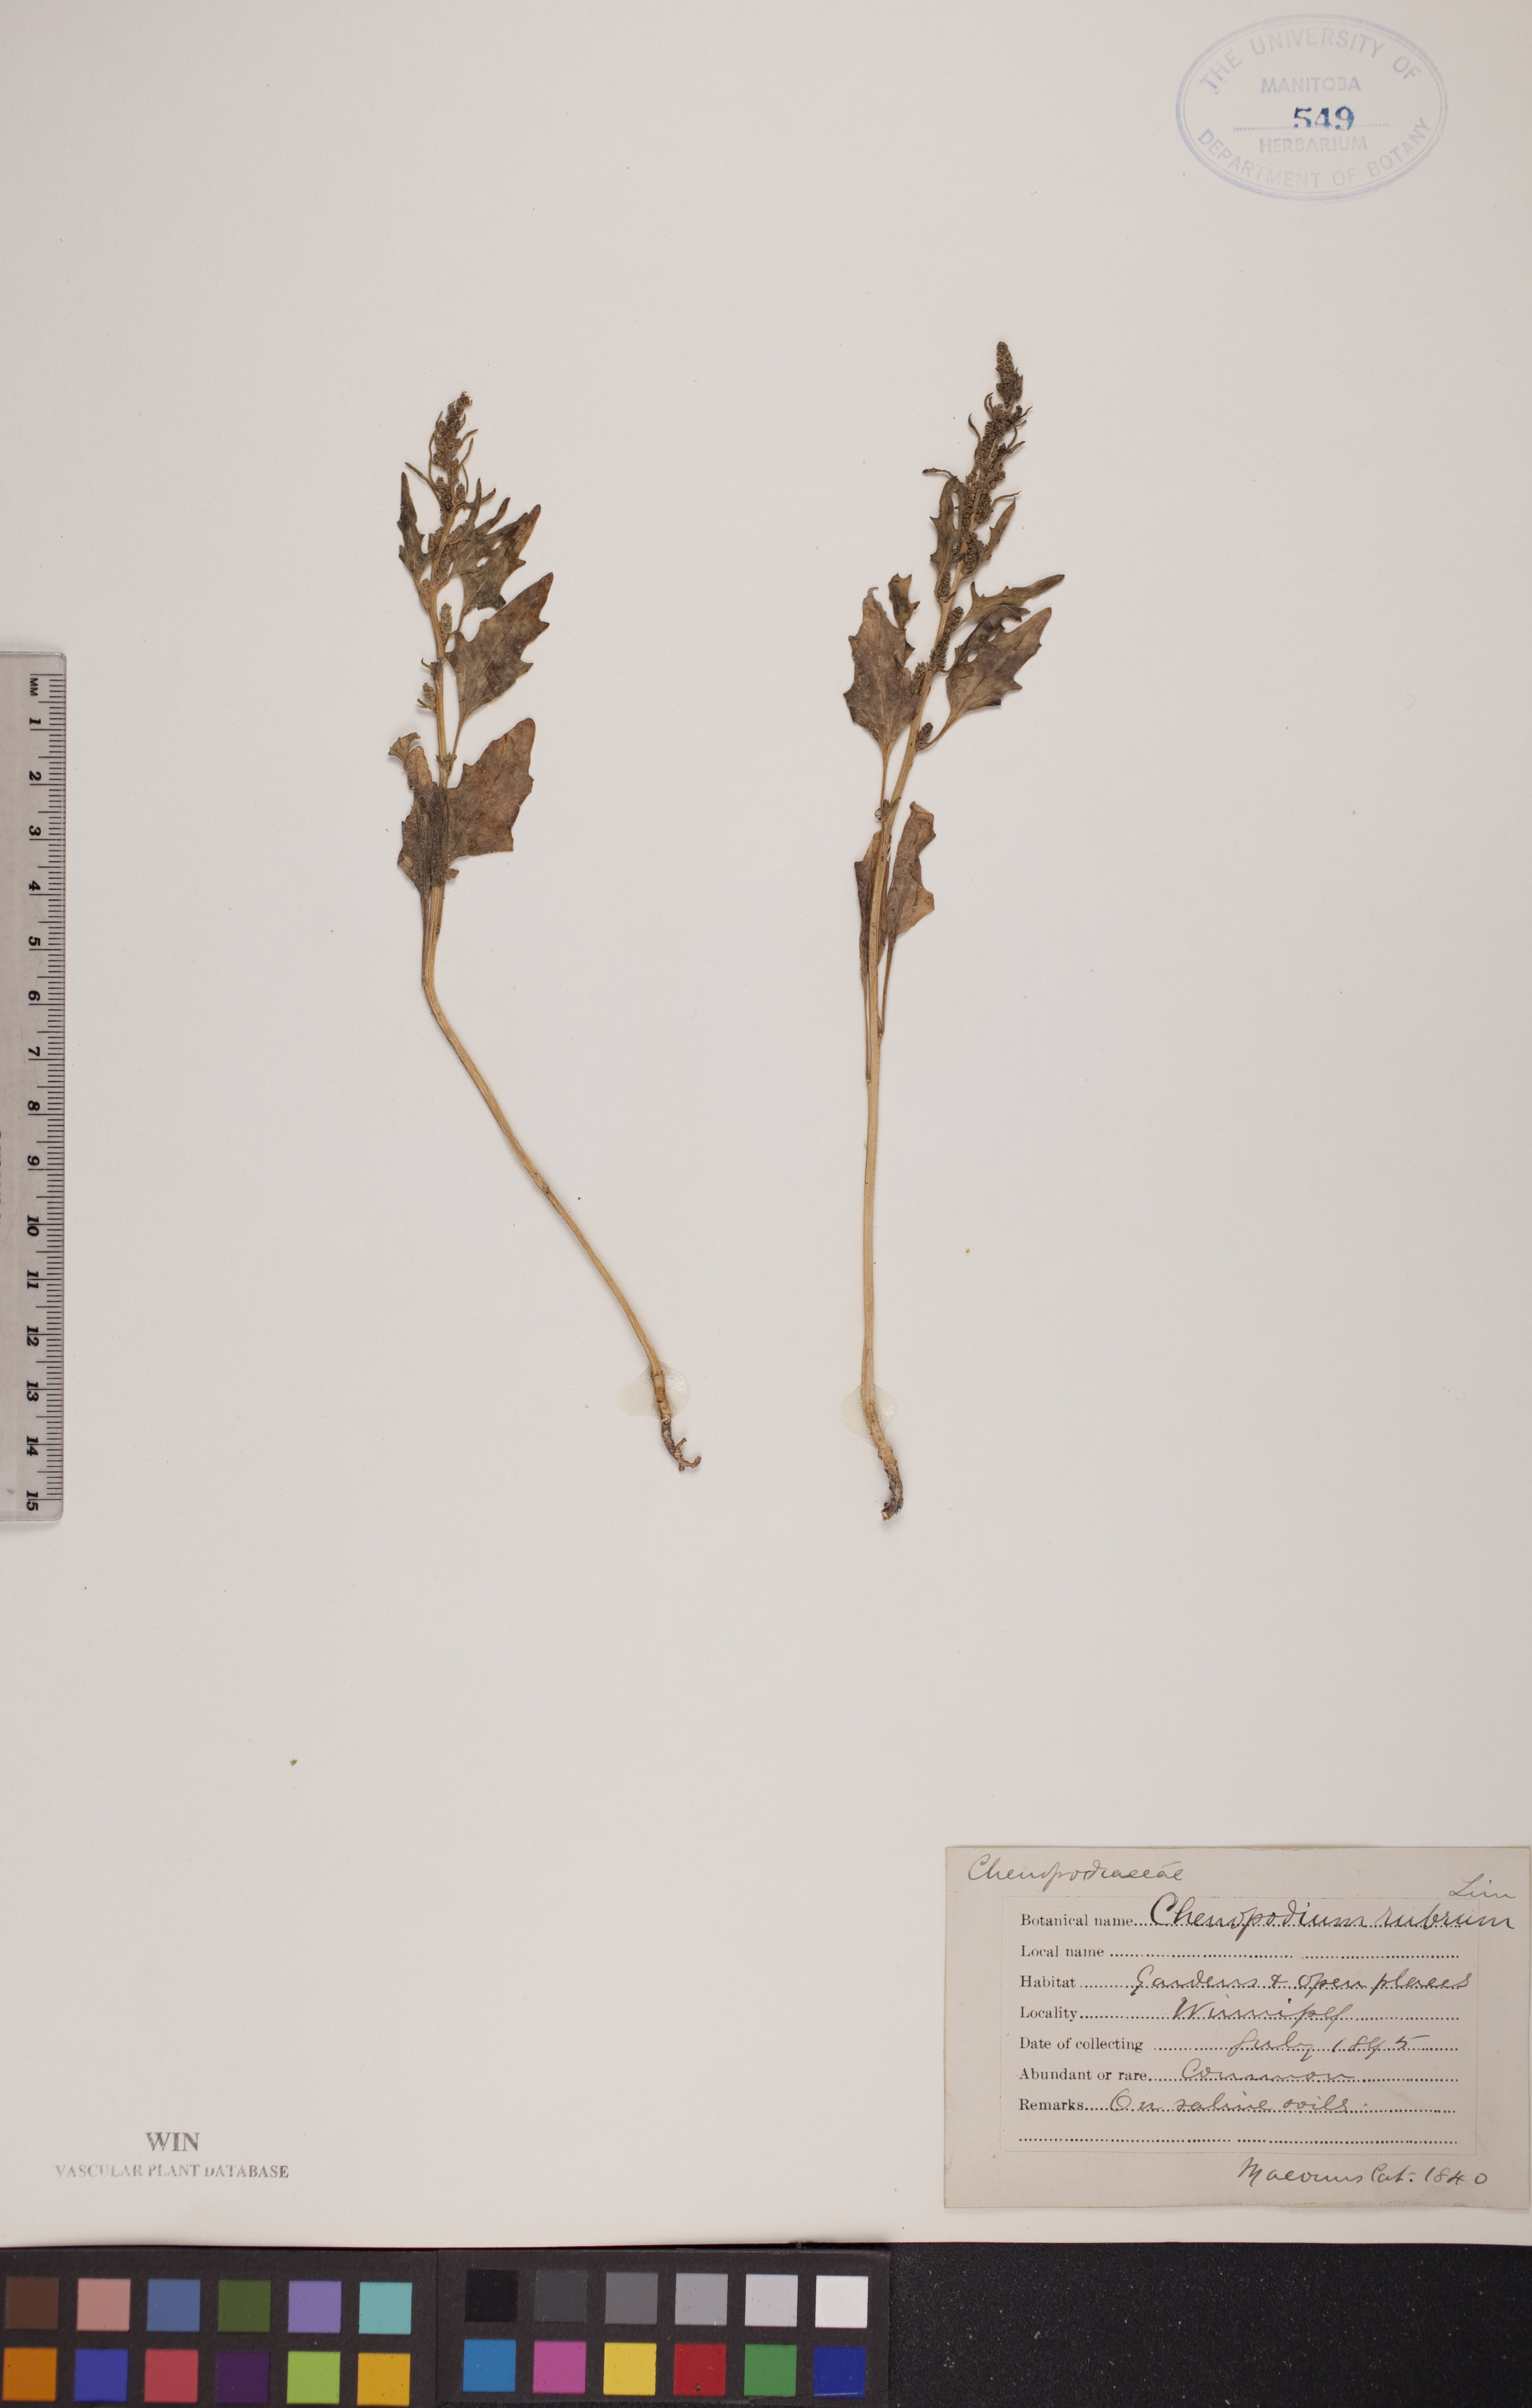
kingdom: Plantae
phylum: Tracheophyta
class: Magnoliopsida
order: Caryophyllales
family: Amaranthaceae
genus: Oxybasis
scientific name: Oxybasis rubra
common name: Red goosefoot
